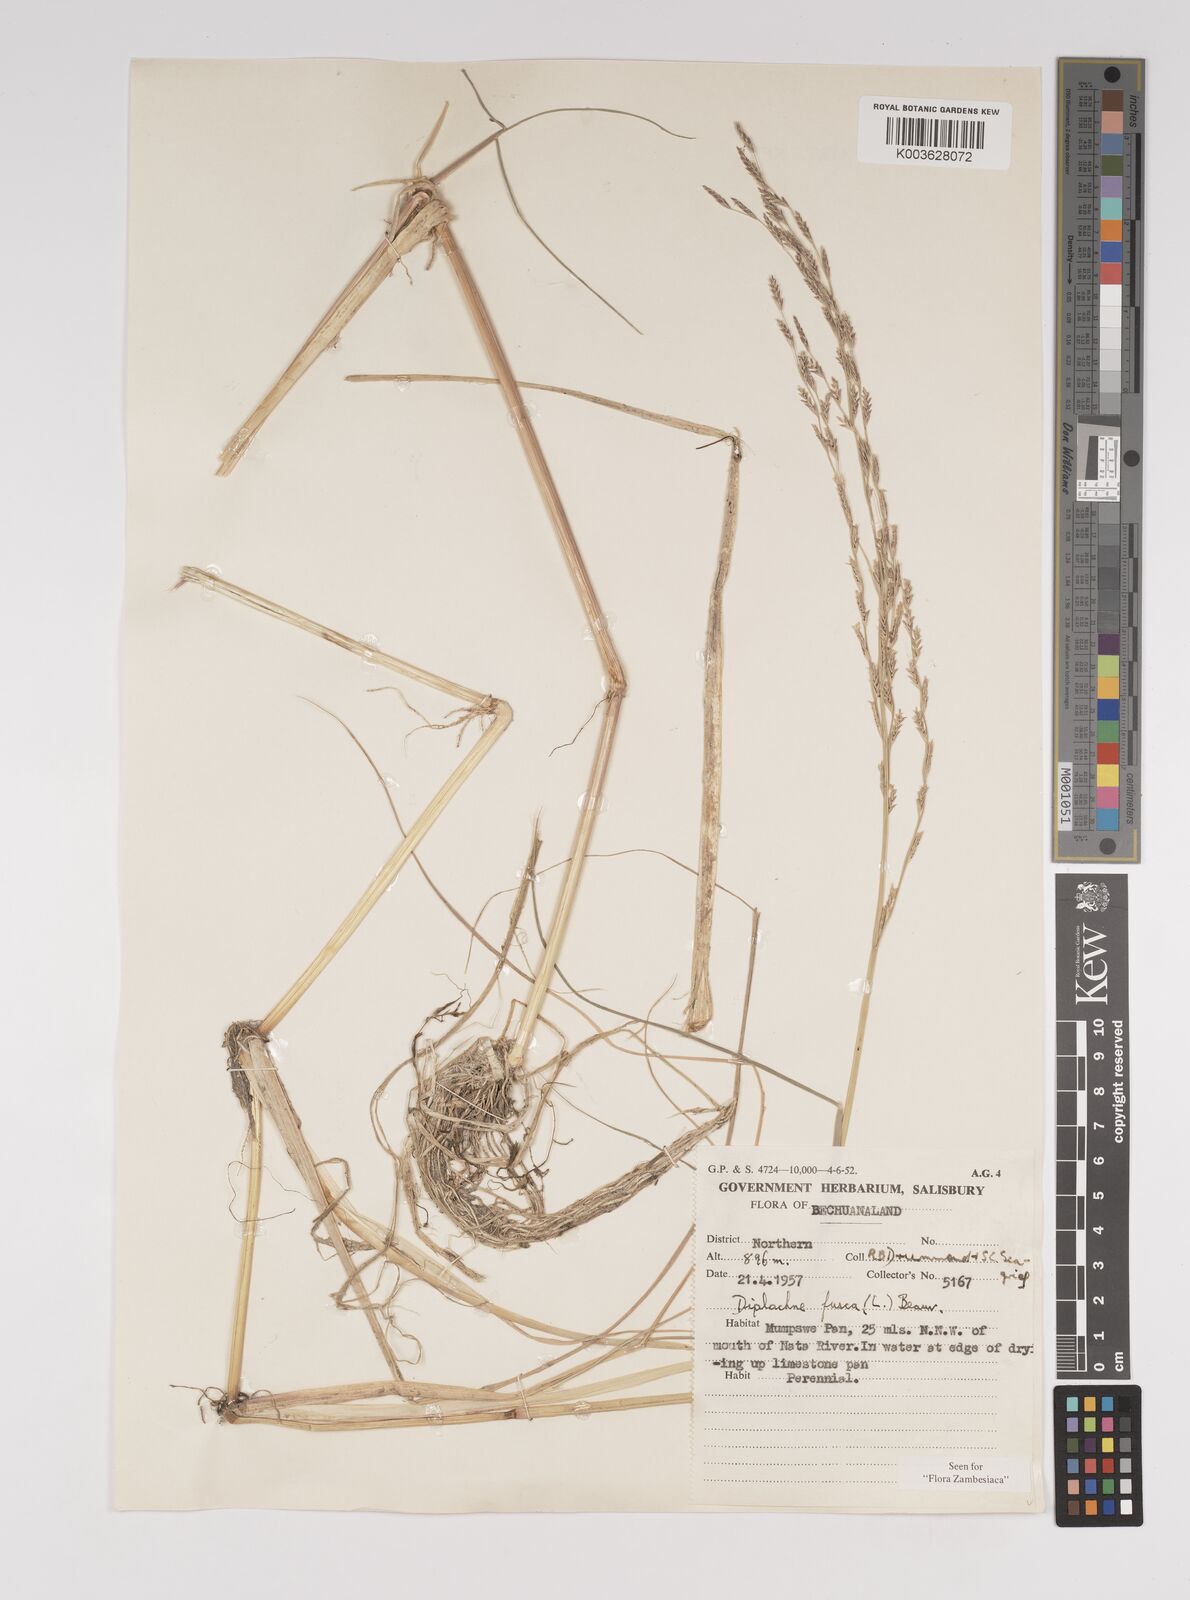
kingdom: Plantae
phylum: Tracheophyta
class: Liliopsida
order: Poales
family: Poaceae
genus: Diplachne
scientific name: Diplachne fusca
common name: Brown beetle grass
